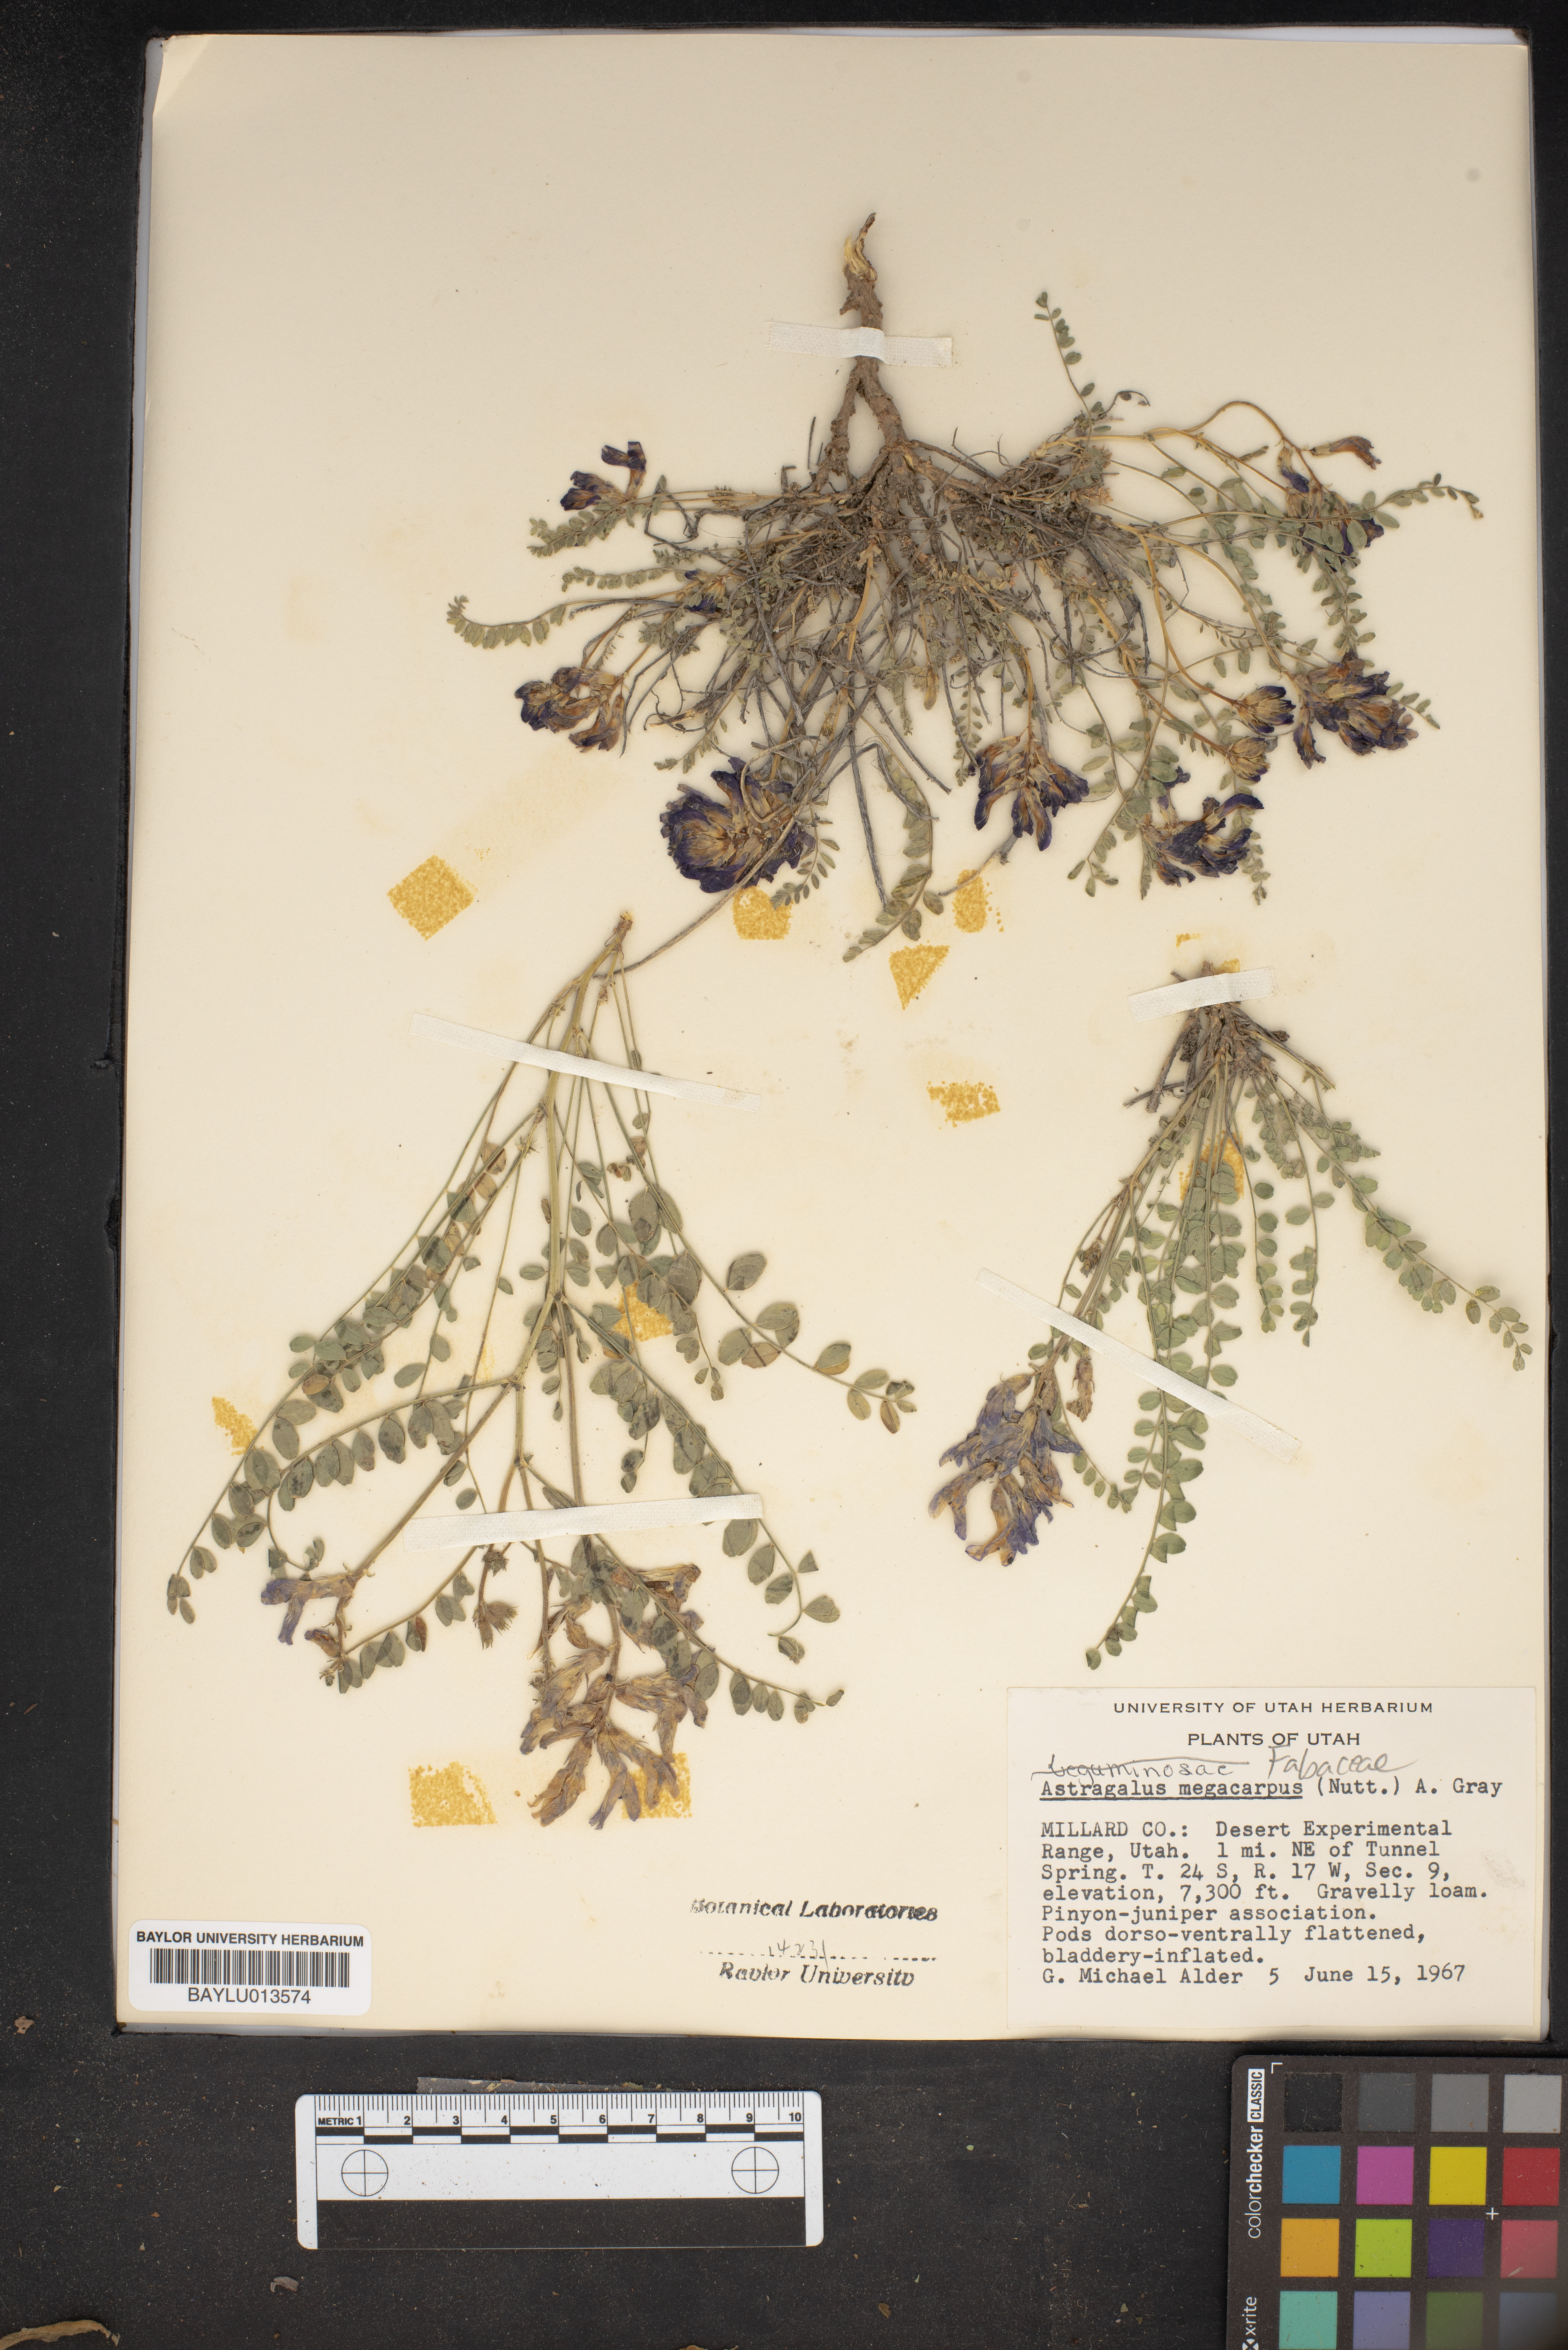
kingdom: Plantae
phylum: Tracheophyta
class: Magnoliopsida
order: Fabales
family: Fabaceae
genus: Astragalus
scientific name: Astragalus megacarpus
